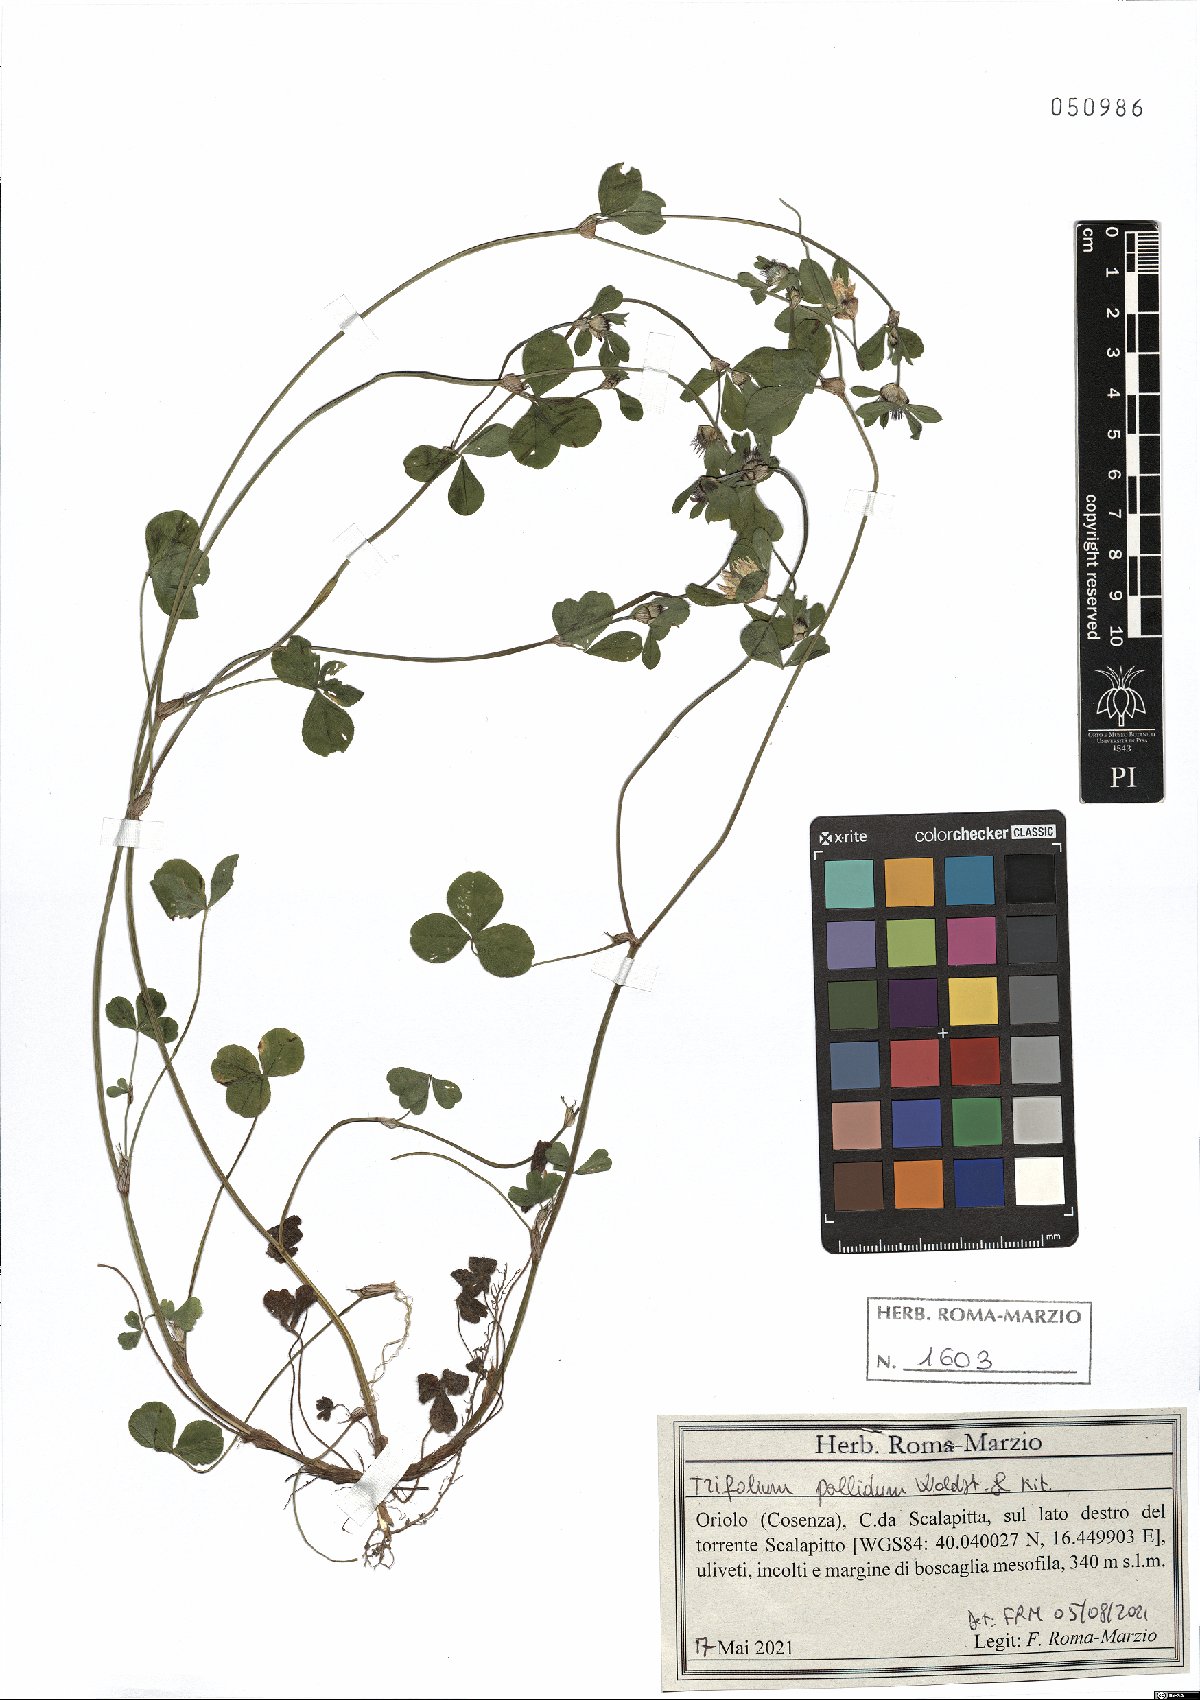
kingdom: Plantae
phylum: Tracheophyta
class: Magnoliopsida
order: Fabales
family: Fabaceae
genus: Trifolium
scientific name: Trifolium pallidum
